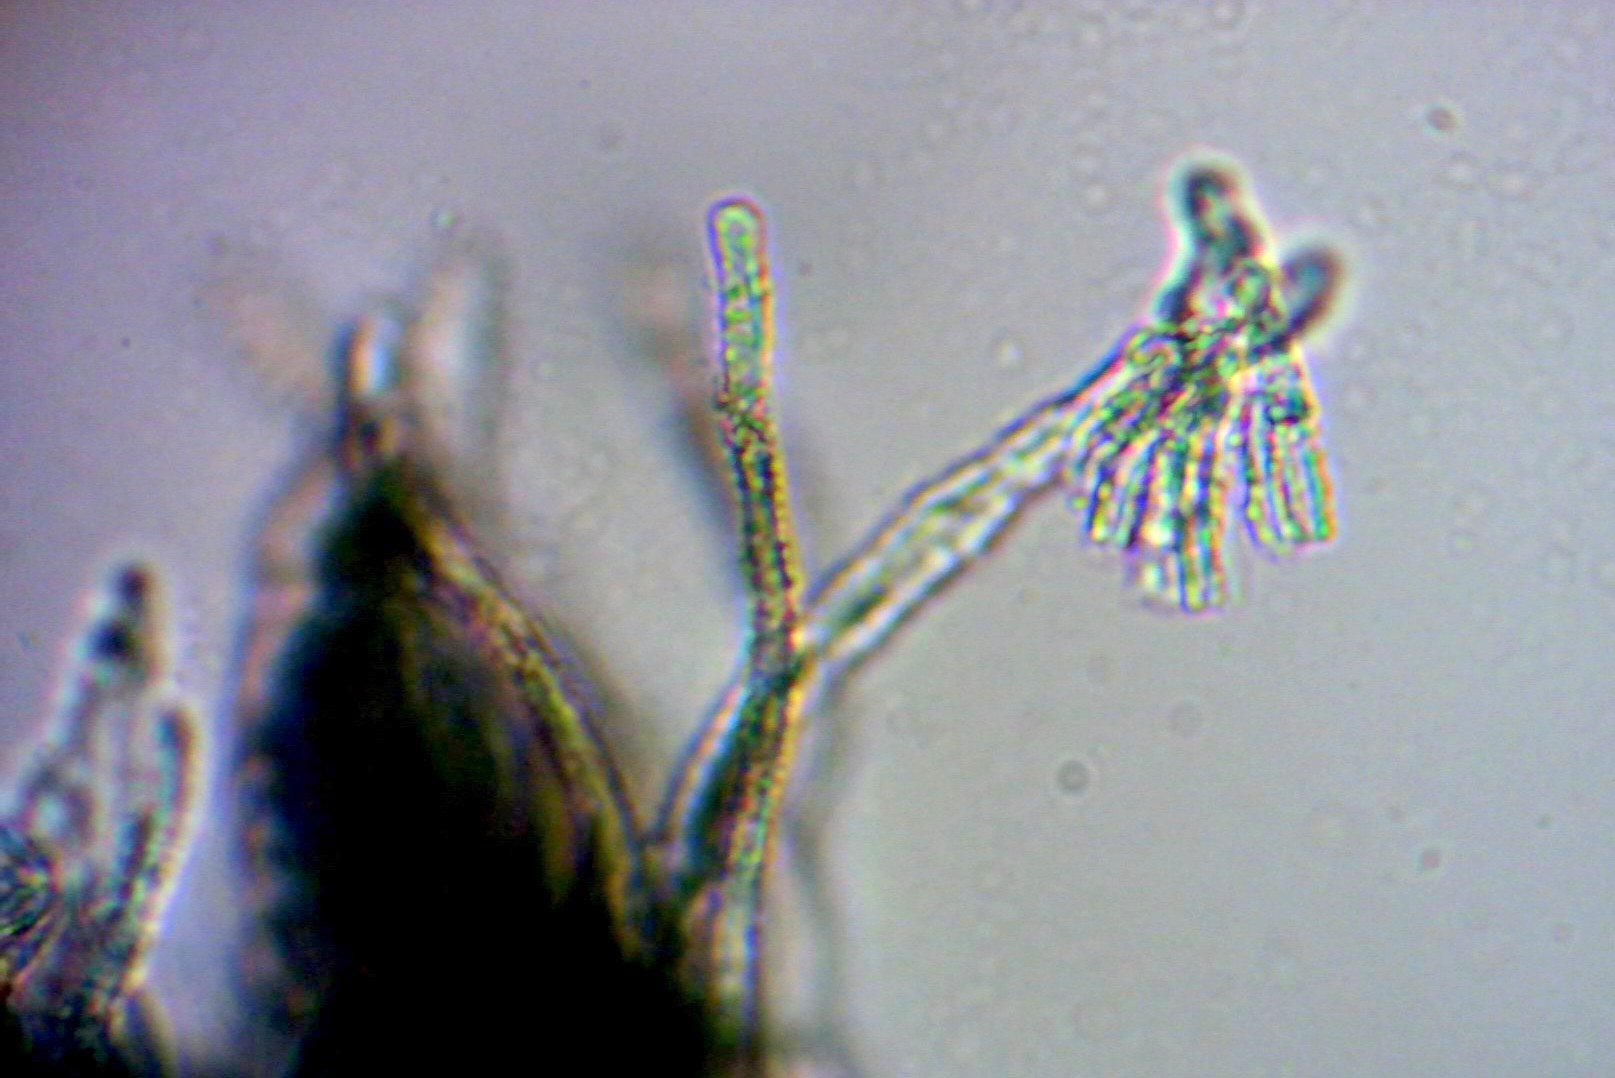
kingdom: Fungi
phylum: Ascomycota
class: Leotiomycetes
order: Helotiales
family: Lachnaceae
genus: Lachnellula
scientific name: Lachnellula occidentalis
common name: Larch disco
